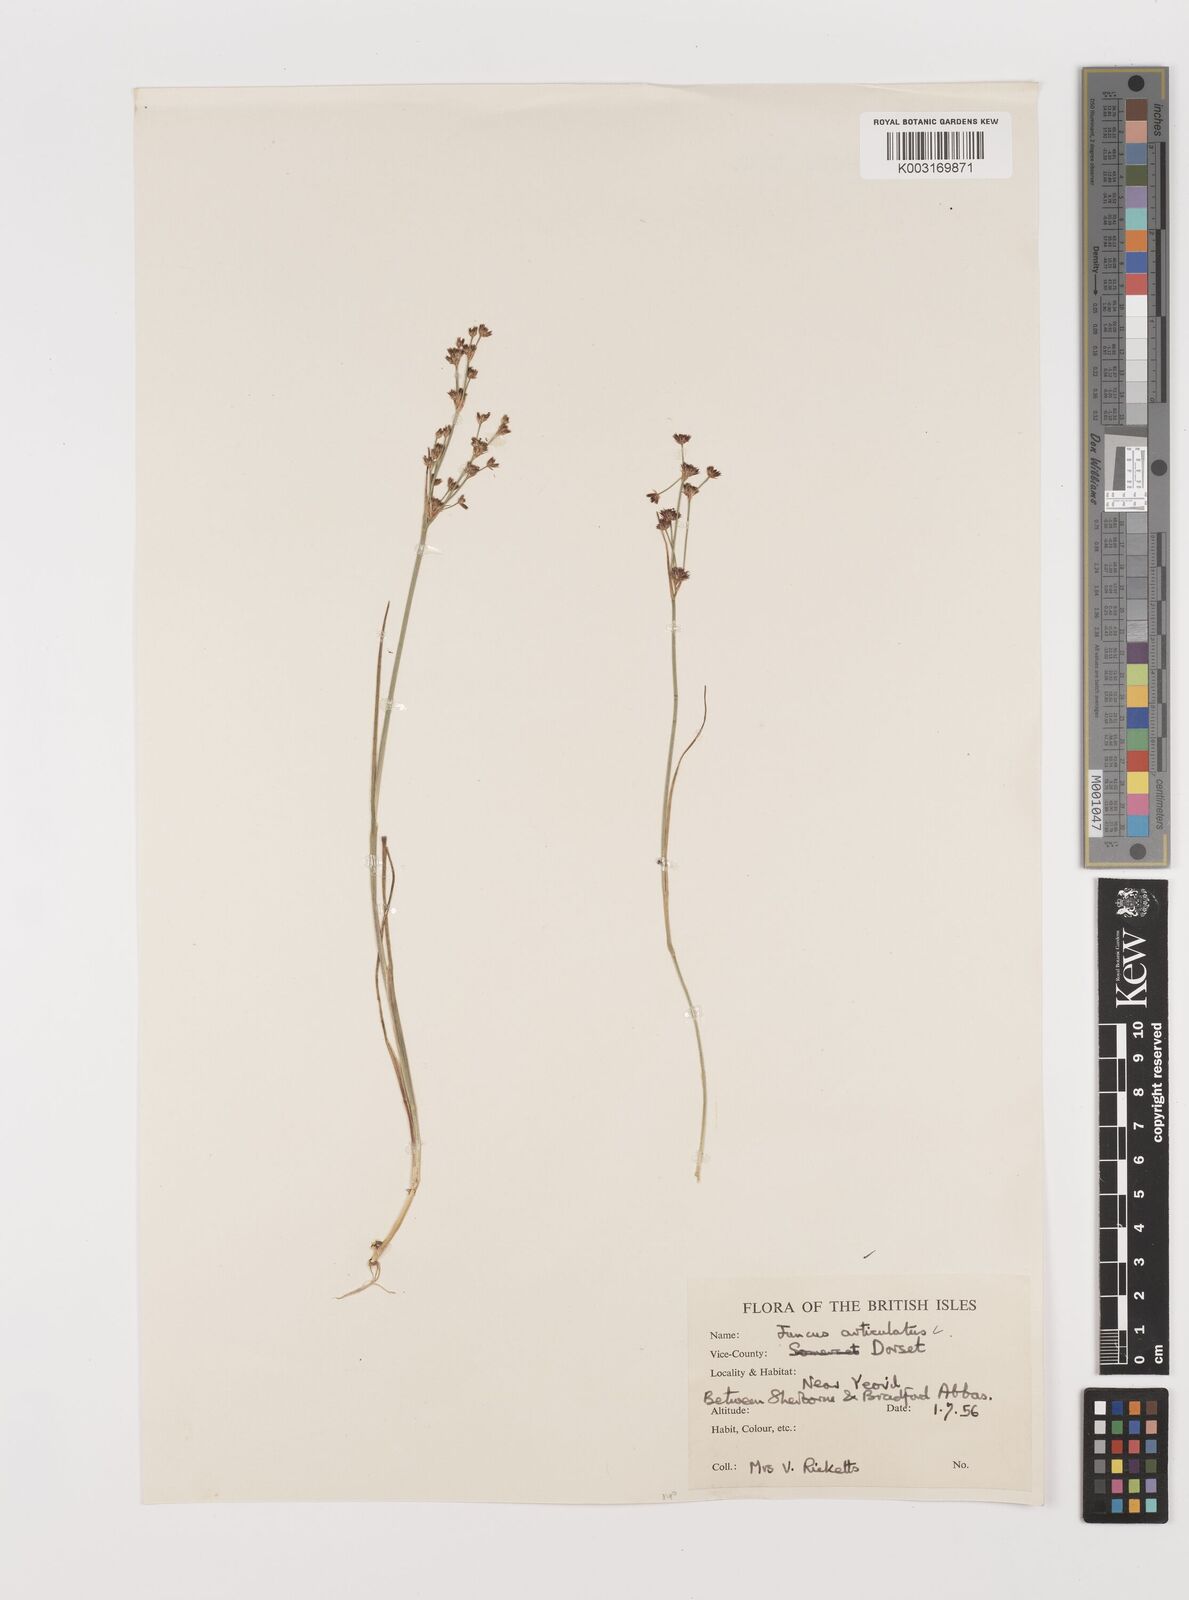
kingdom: Plantae
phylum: Tracheophyta
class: Liliopsida
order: Poales
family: Juncaceae
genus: Juncus
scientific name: Juncus articulatus
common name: Jointed rush
